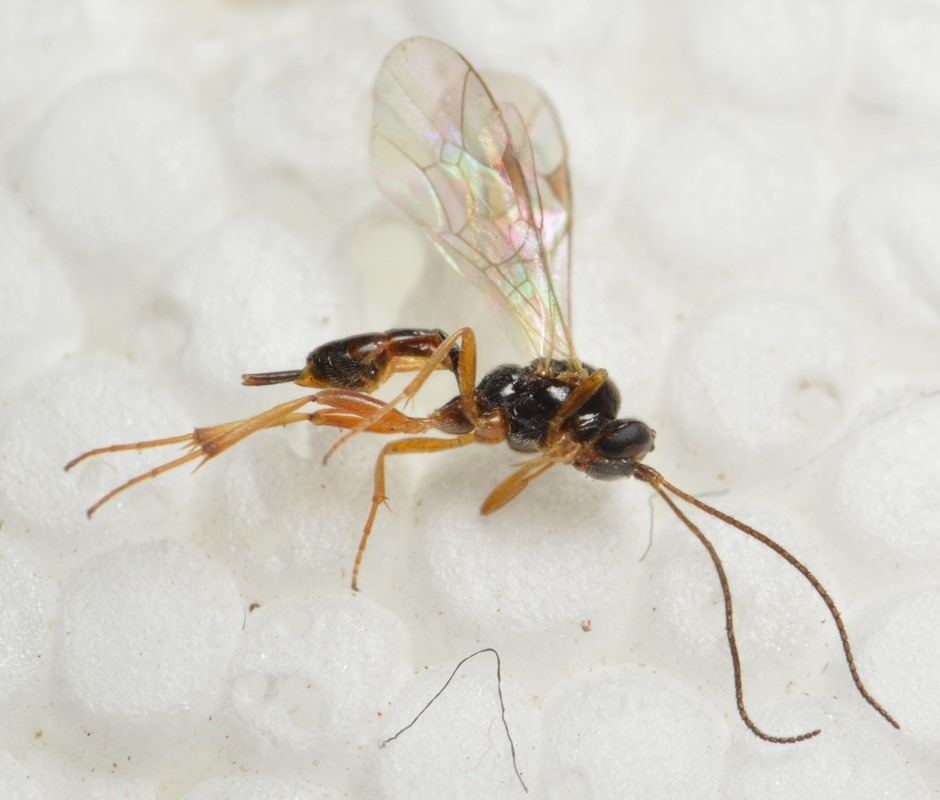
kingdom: Animalia
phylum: Arthropoda
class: Insecta
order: Hymenoptera
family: Ichneumonidae
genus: Mesochorus
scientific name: Mesochorus gemellus
